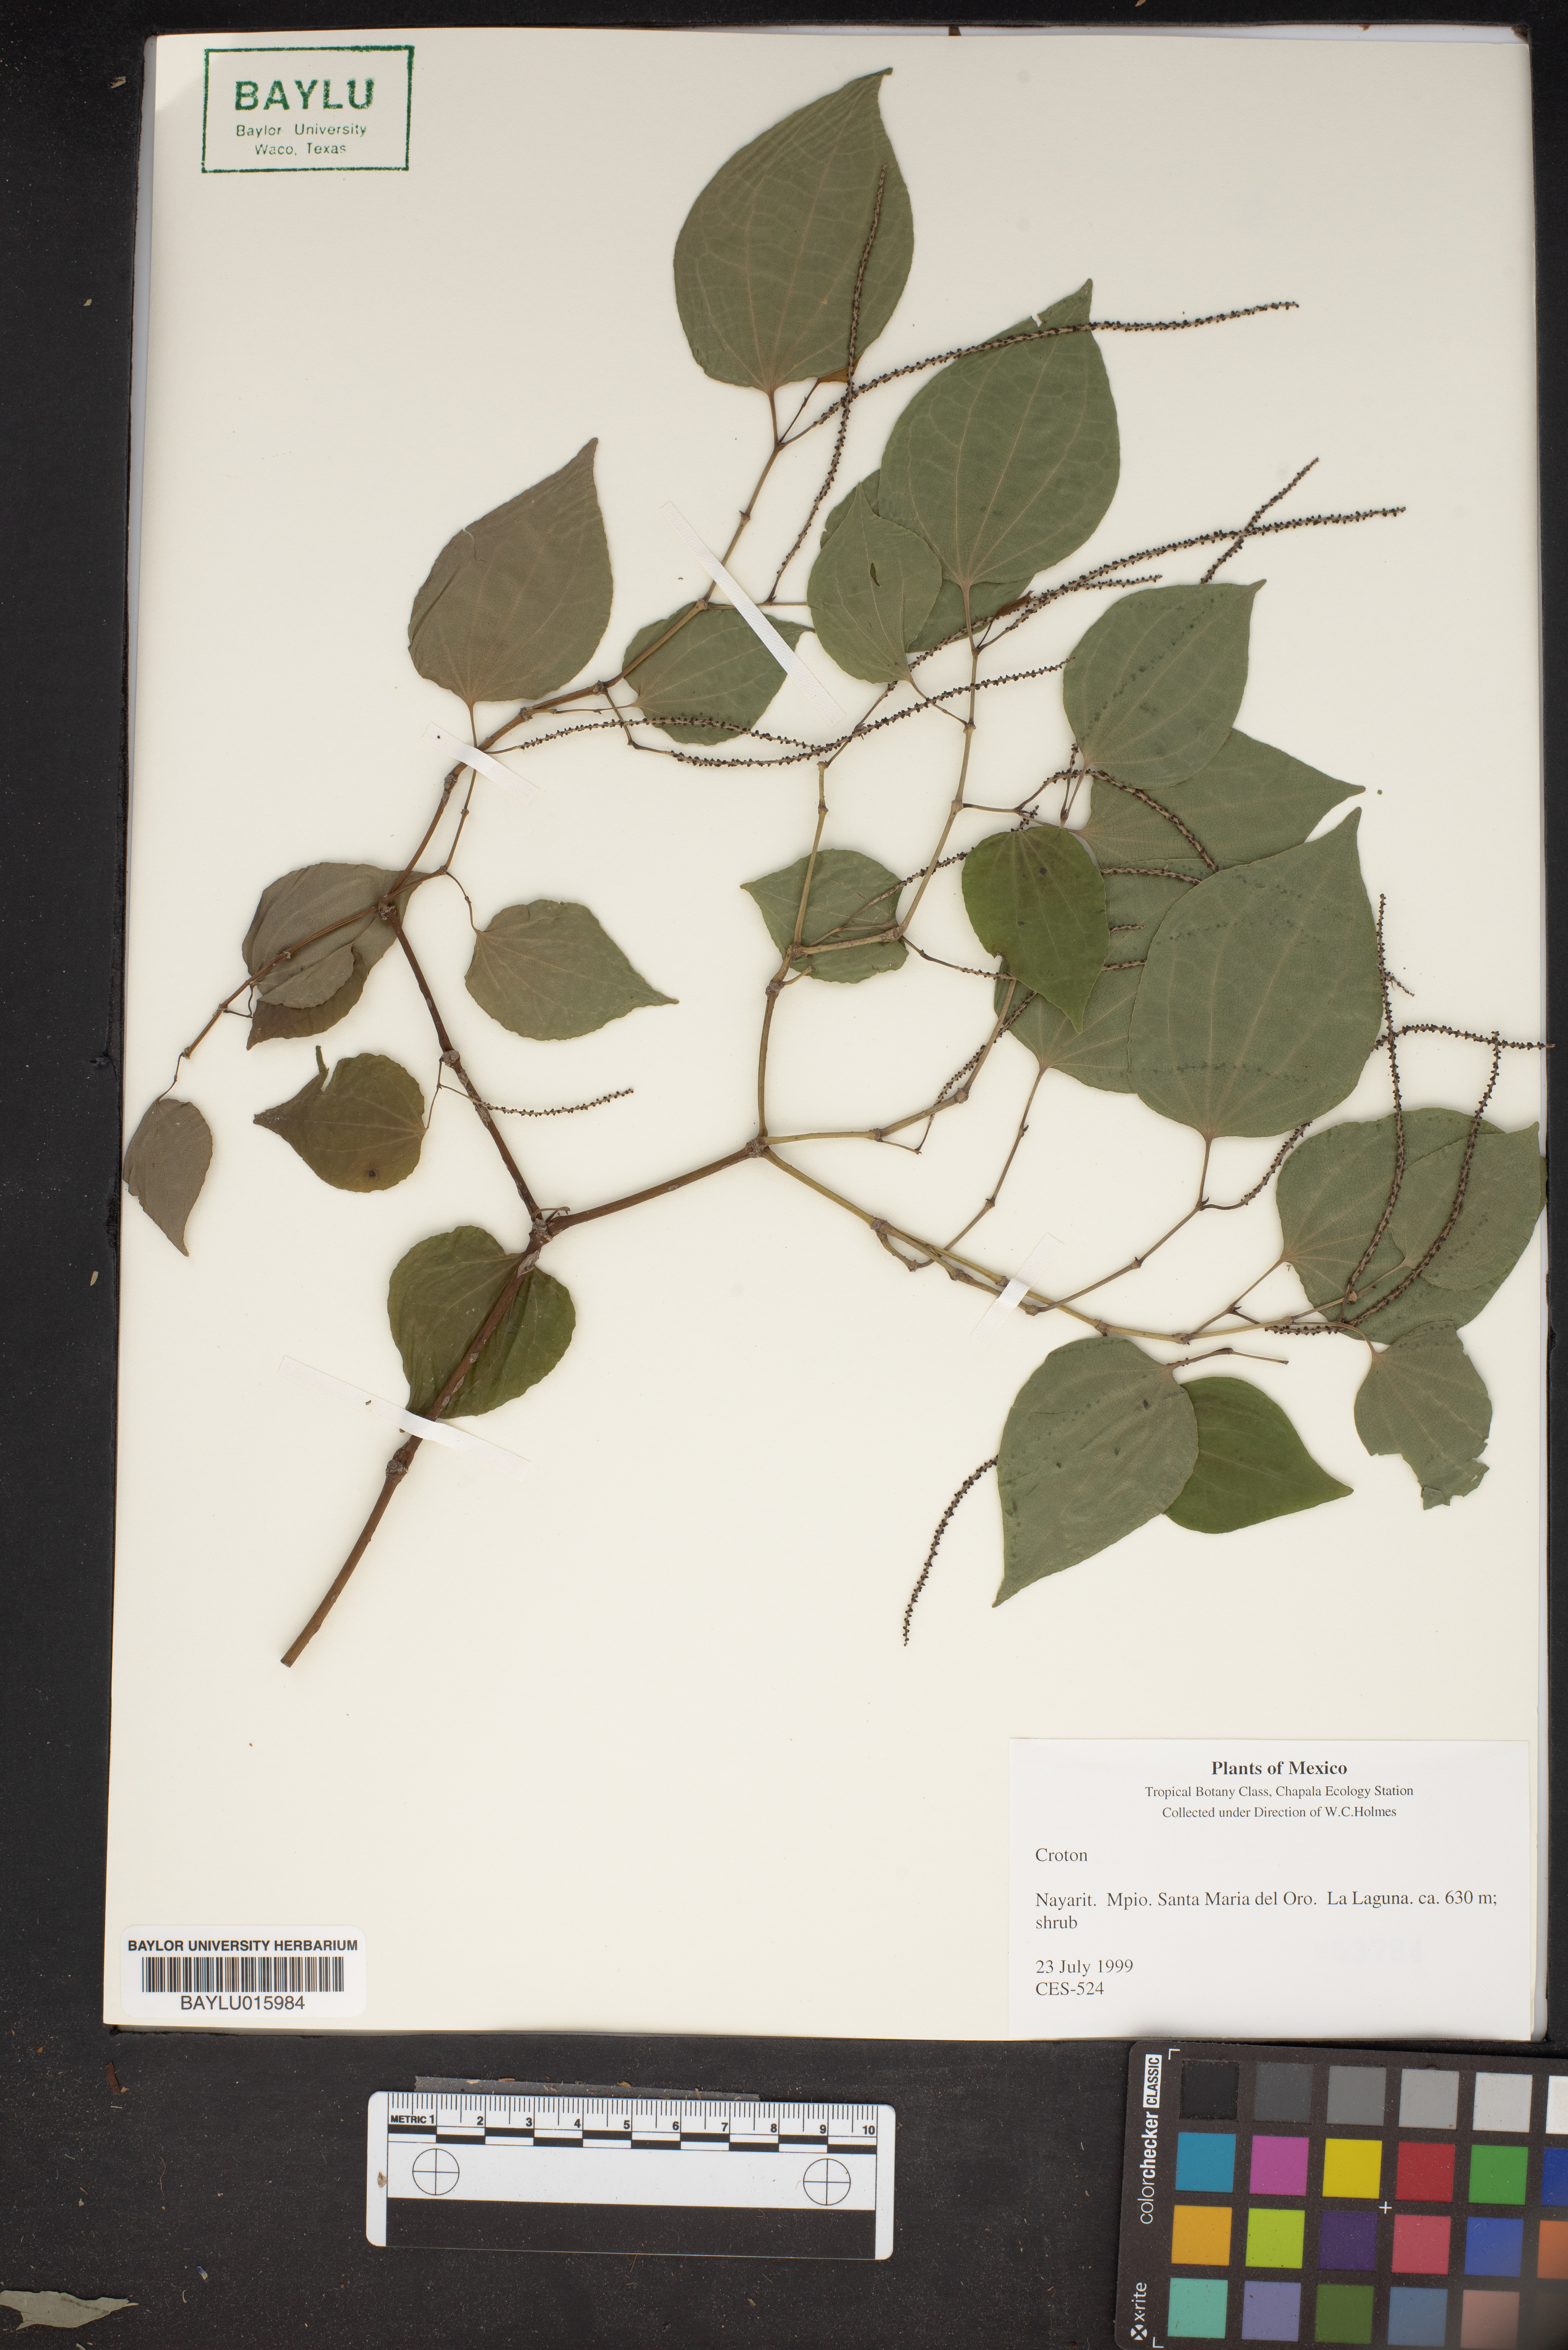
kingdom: Plantae
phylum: Tracheophyta
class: Magnoliopsida
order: Malpighiales
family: Euphorbiaceae
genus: Croton
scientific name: Croton
